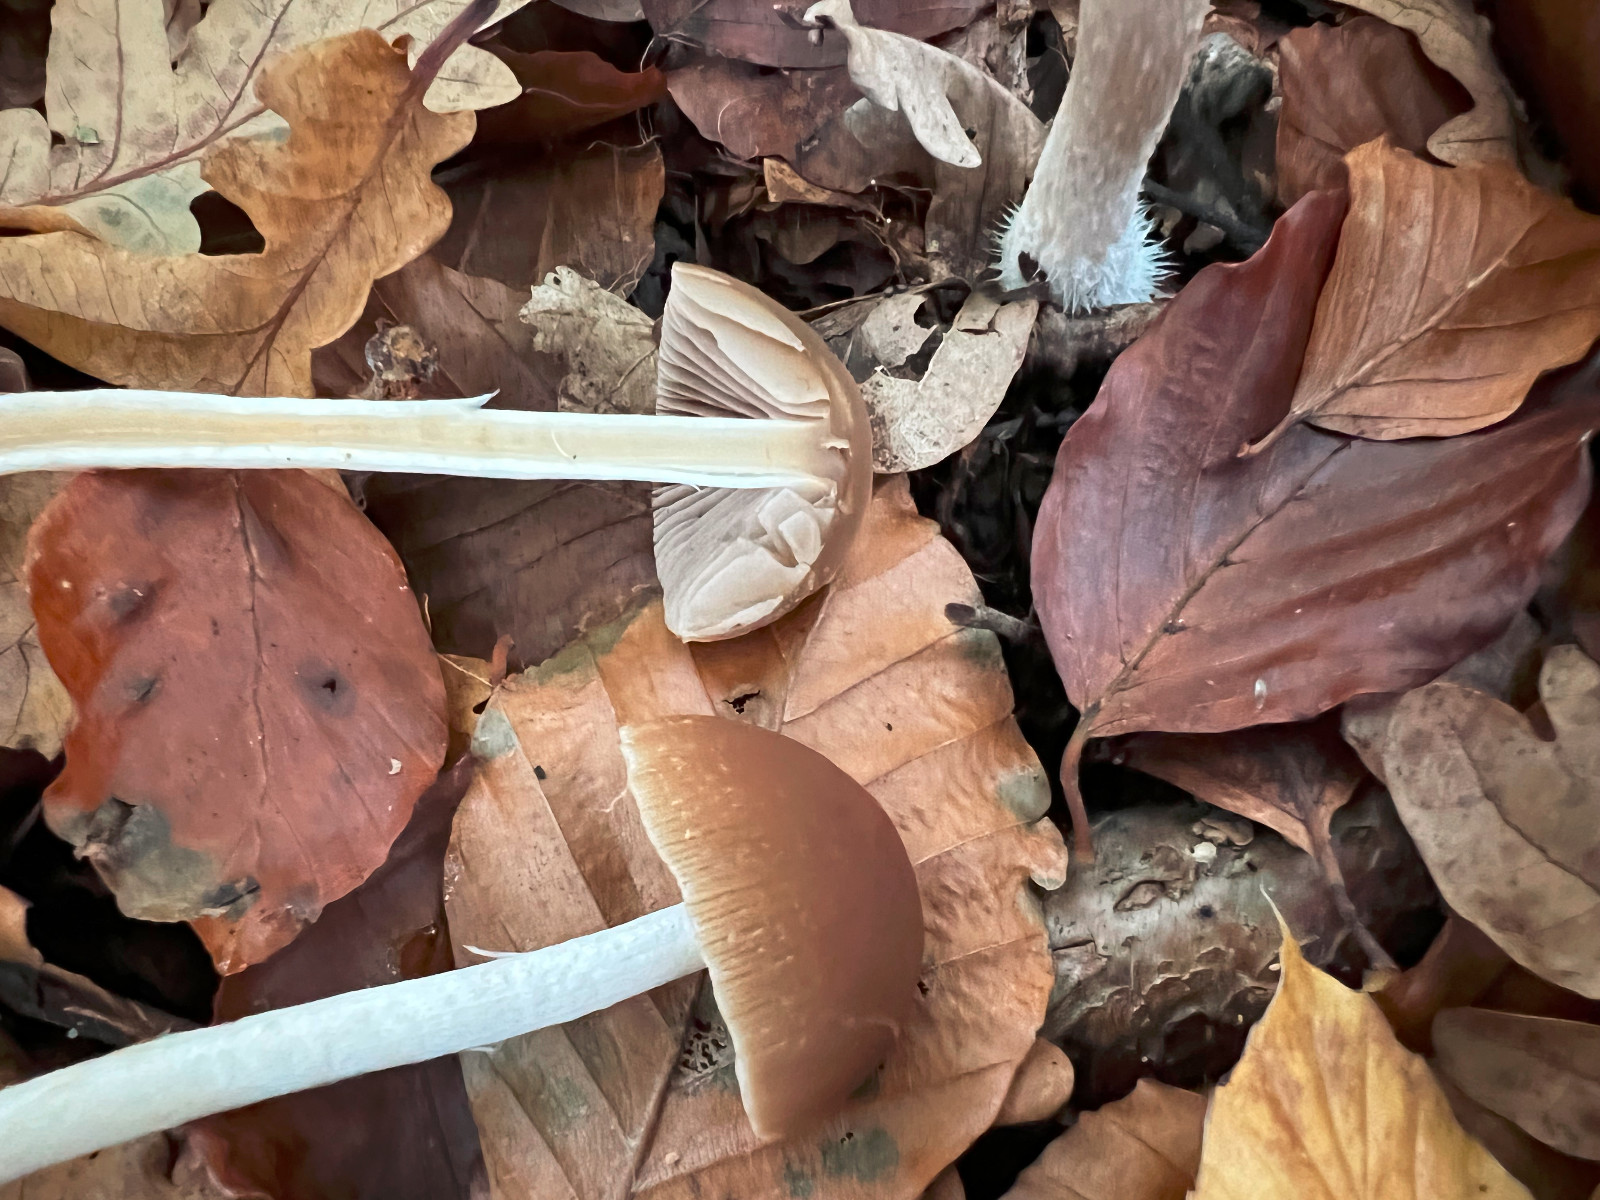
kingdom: Fungi
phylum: Basidiomycota
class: Agaricomycetes
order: Agaricales
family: Psathyrellaceae
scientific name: Psathyrellaceae
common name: mørkhatfamilien
